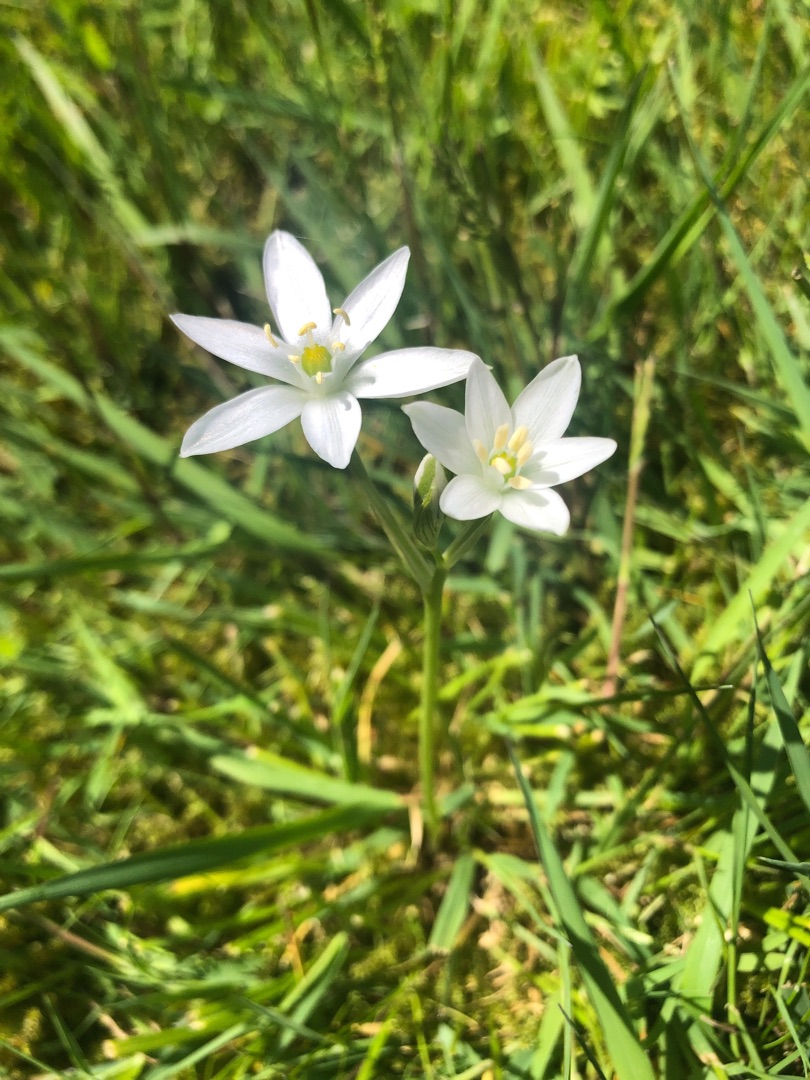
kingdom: Plantae
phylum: Tracheophyta
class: Liliopsida
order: Asparagales
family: Asparagaceae
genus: Ornithogalum
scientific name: Ornithogalum umbellatum
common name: Kost-fuglemælk
